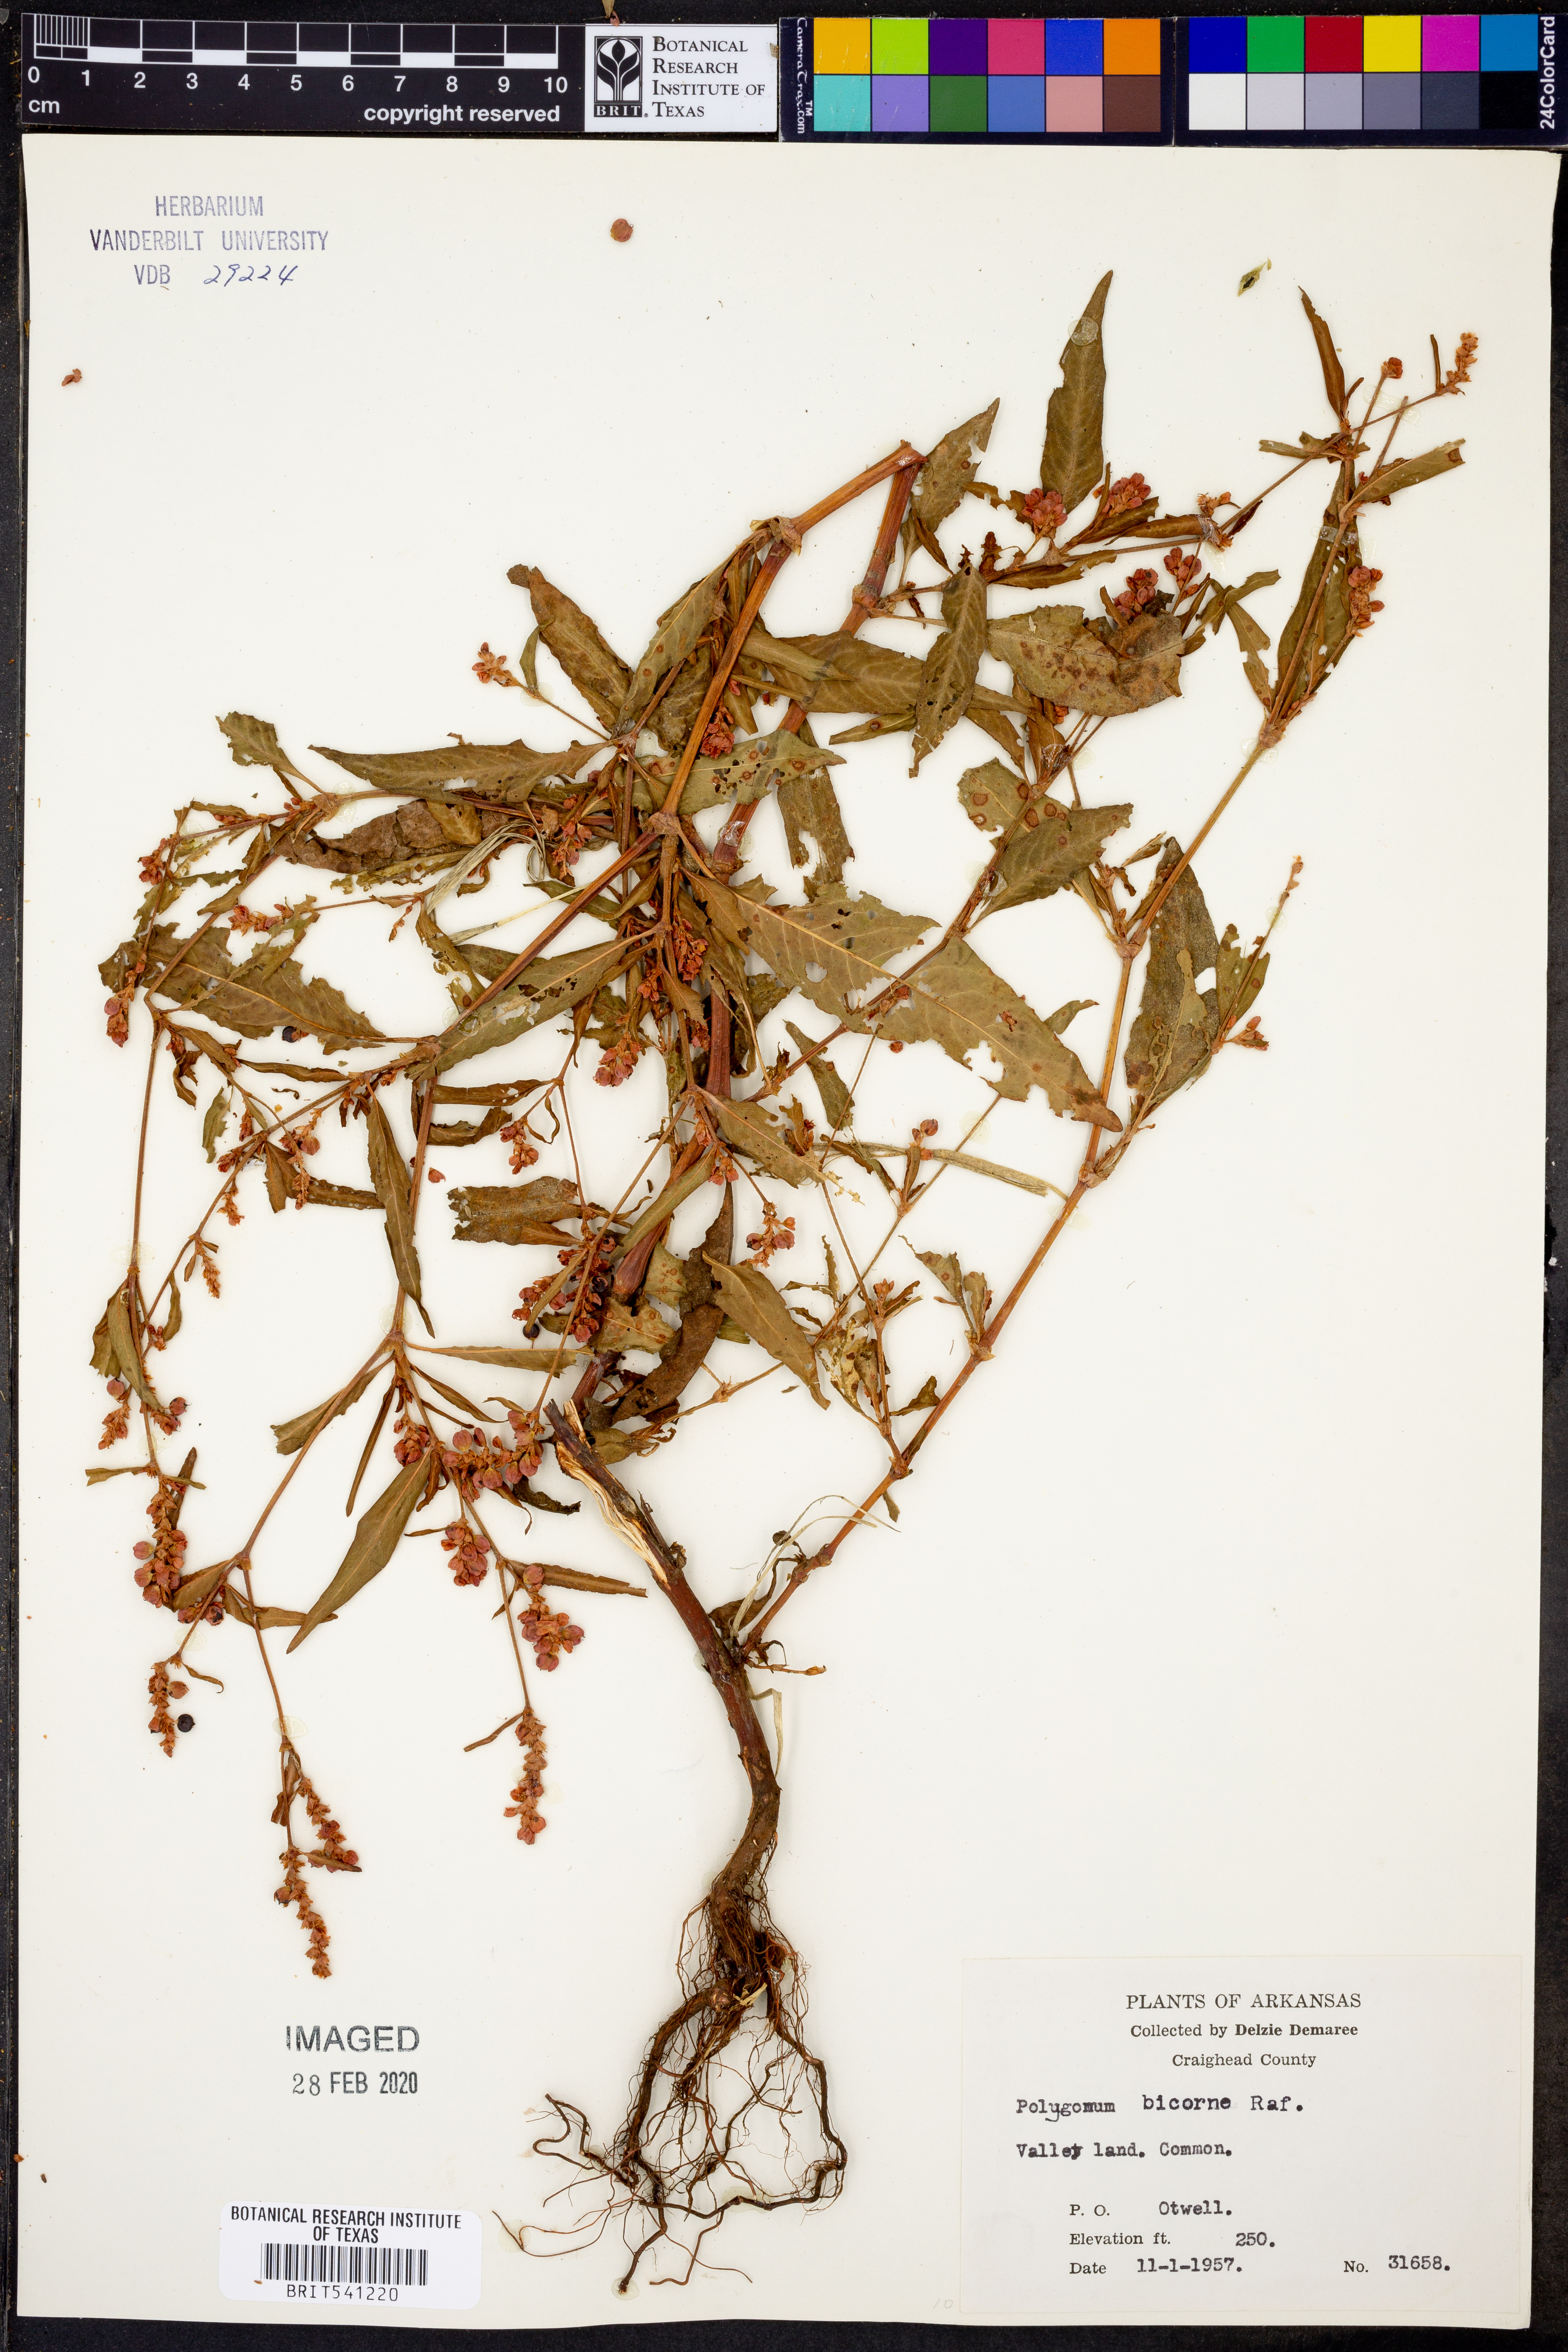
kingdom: Plantae
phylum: Tracheophyta
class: Magnoliopsida
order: Caryophyllales
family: Polygonaceae
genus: Persicaria
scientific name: Persicaria bicornis
